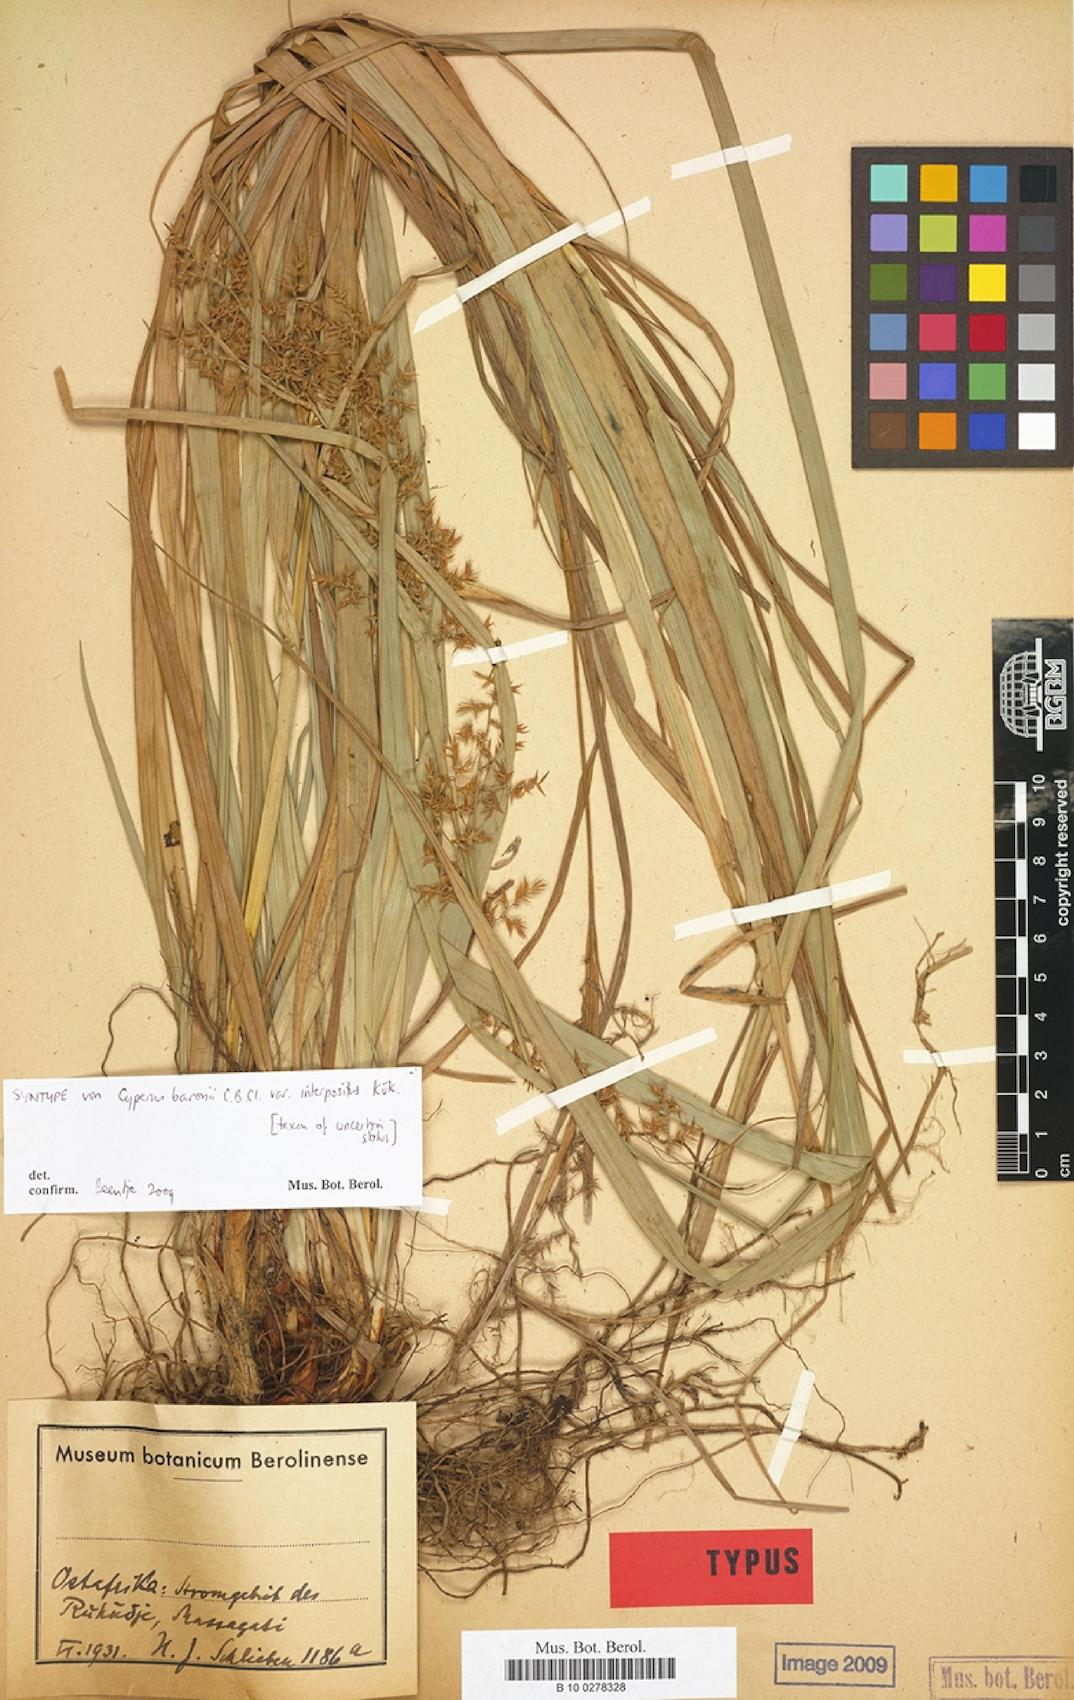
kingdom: Plantae
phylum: Tracheophyta
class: Liliopsida
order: Poales
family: Cyperaceae
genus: Cyperus
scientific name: Cyperus baronii
